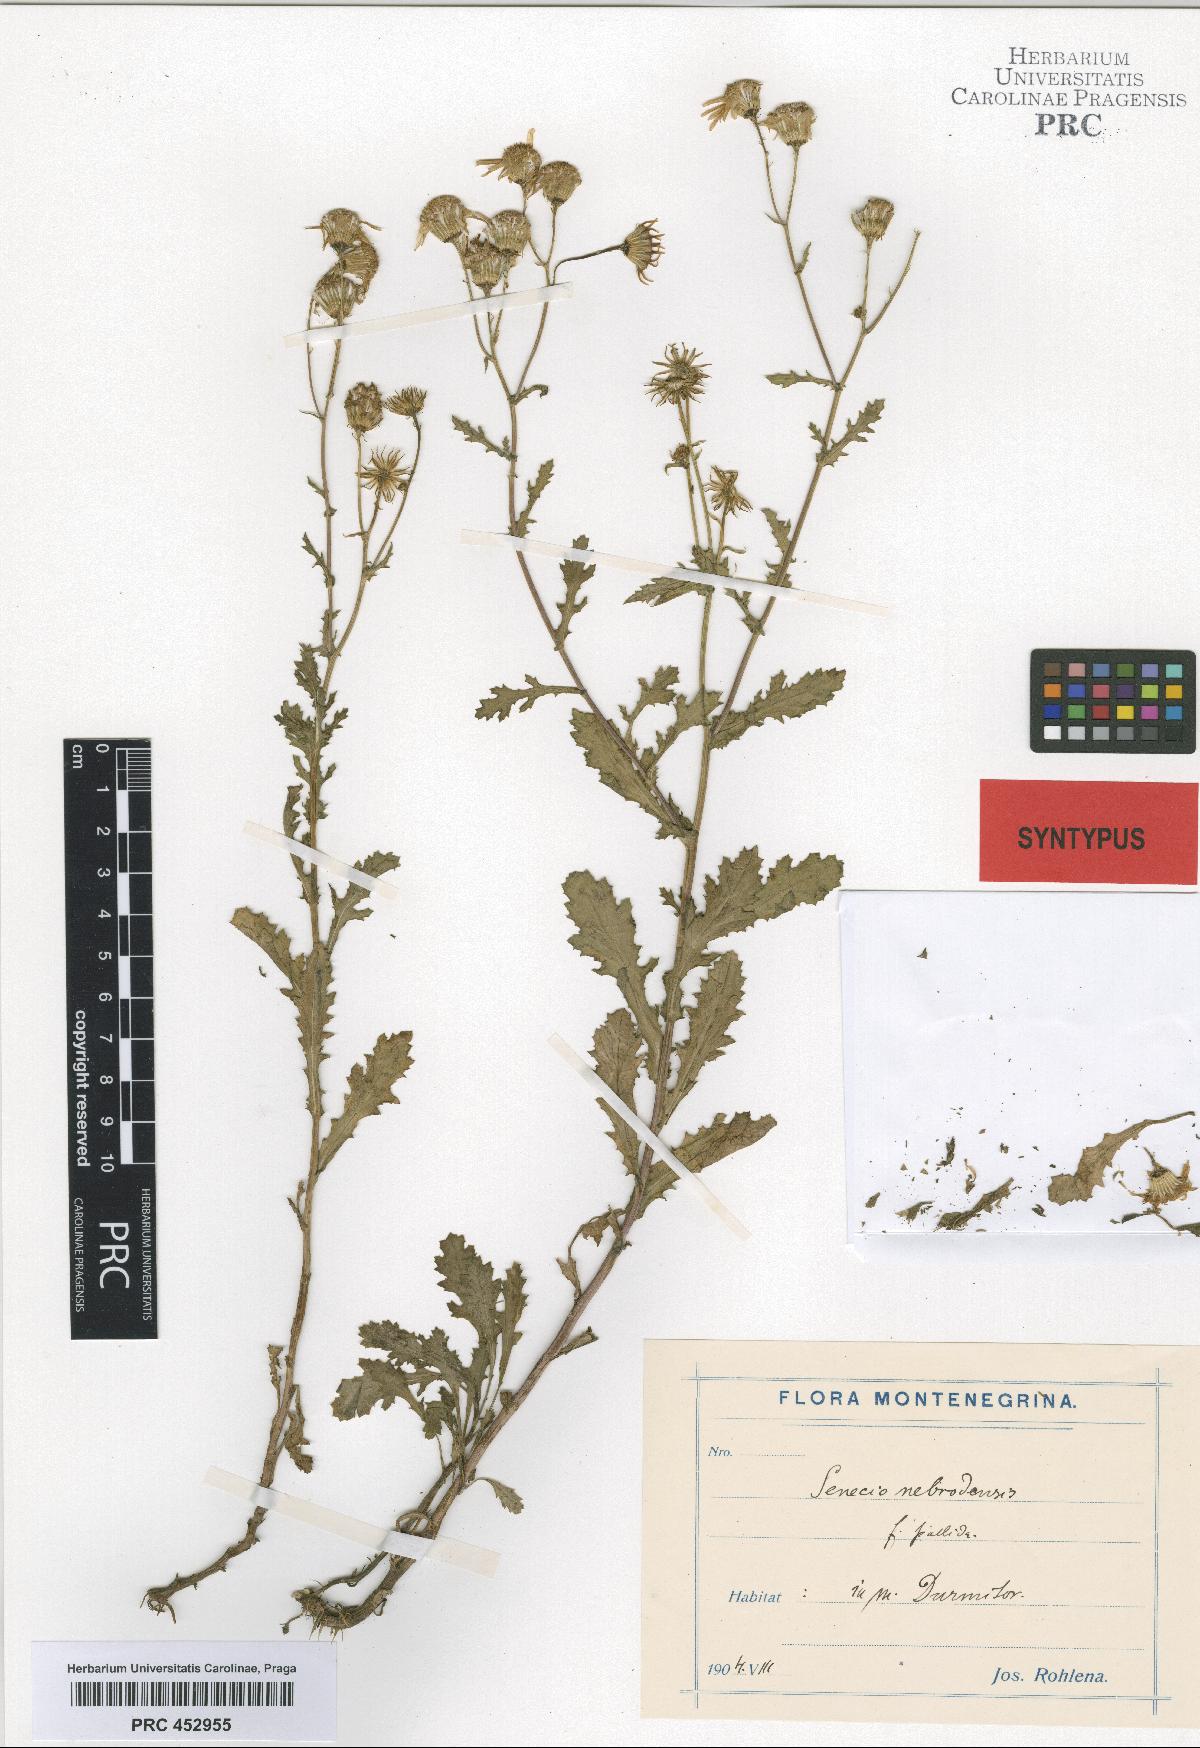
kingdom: Plantae
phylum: Tracheophyta
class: Magnoliopsida
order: Asterales
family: Asteraceae
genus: Senecio
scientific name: Senecio
